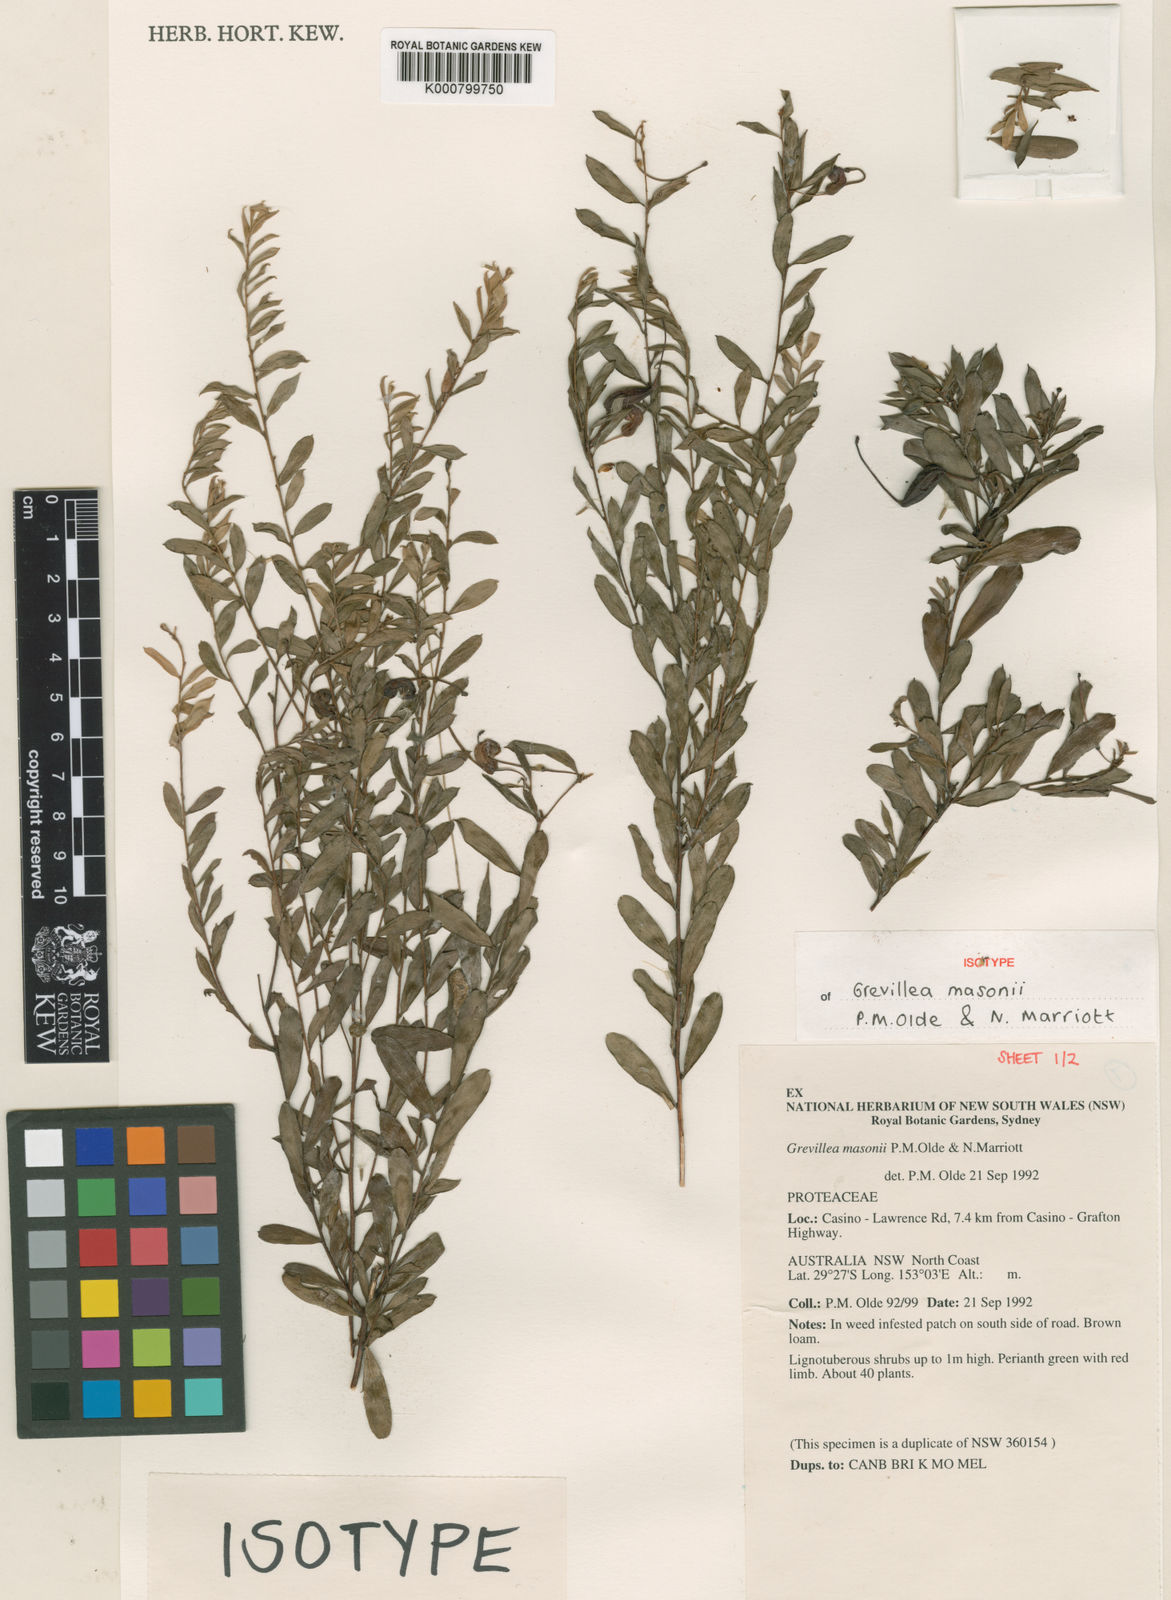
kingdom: Plantae
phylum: Tracheophyta
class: Magnoliopsida
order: Proteales
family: Proteaceae
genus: Grevillea
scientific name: Grevillea masonii
